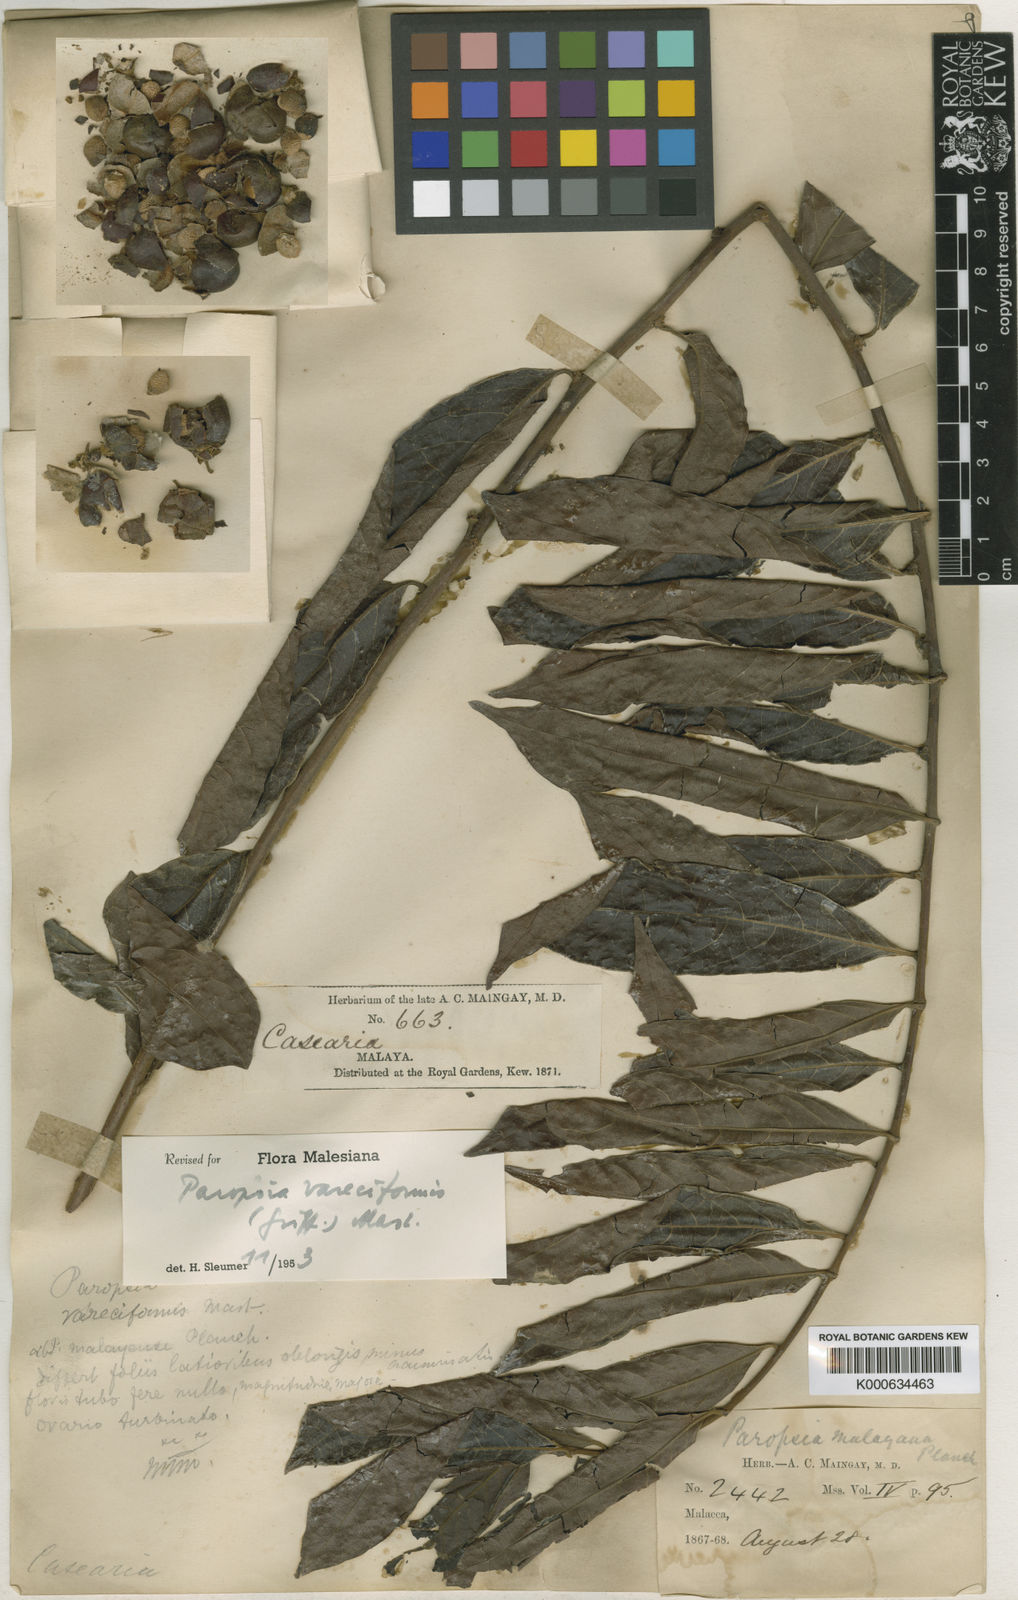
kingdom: Plantae
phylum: Tracheophyta
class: Magnoliopsida
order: Malpighiales
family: Passifloraceae
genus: Paropsia
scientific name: Paropsia vareciformis
